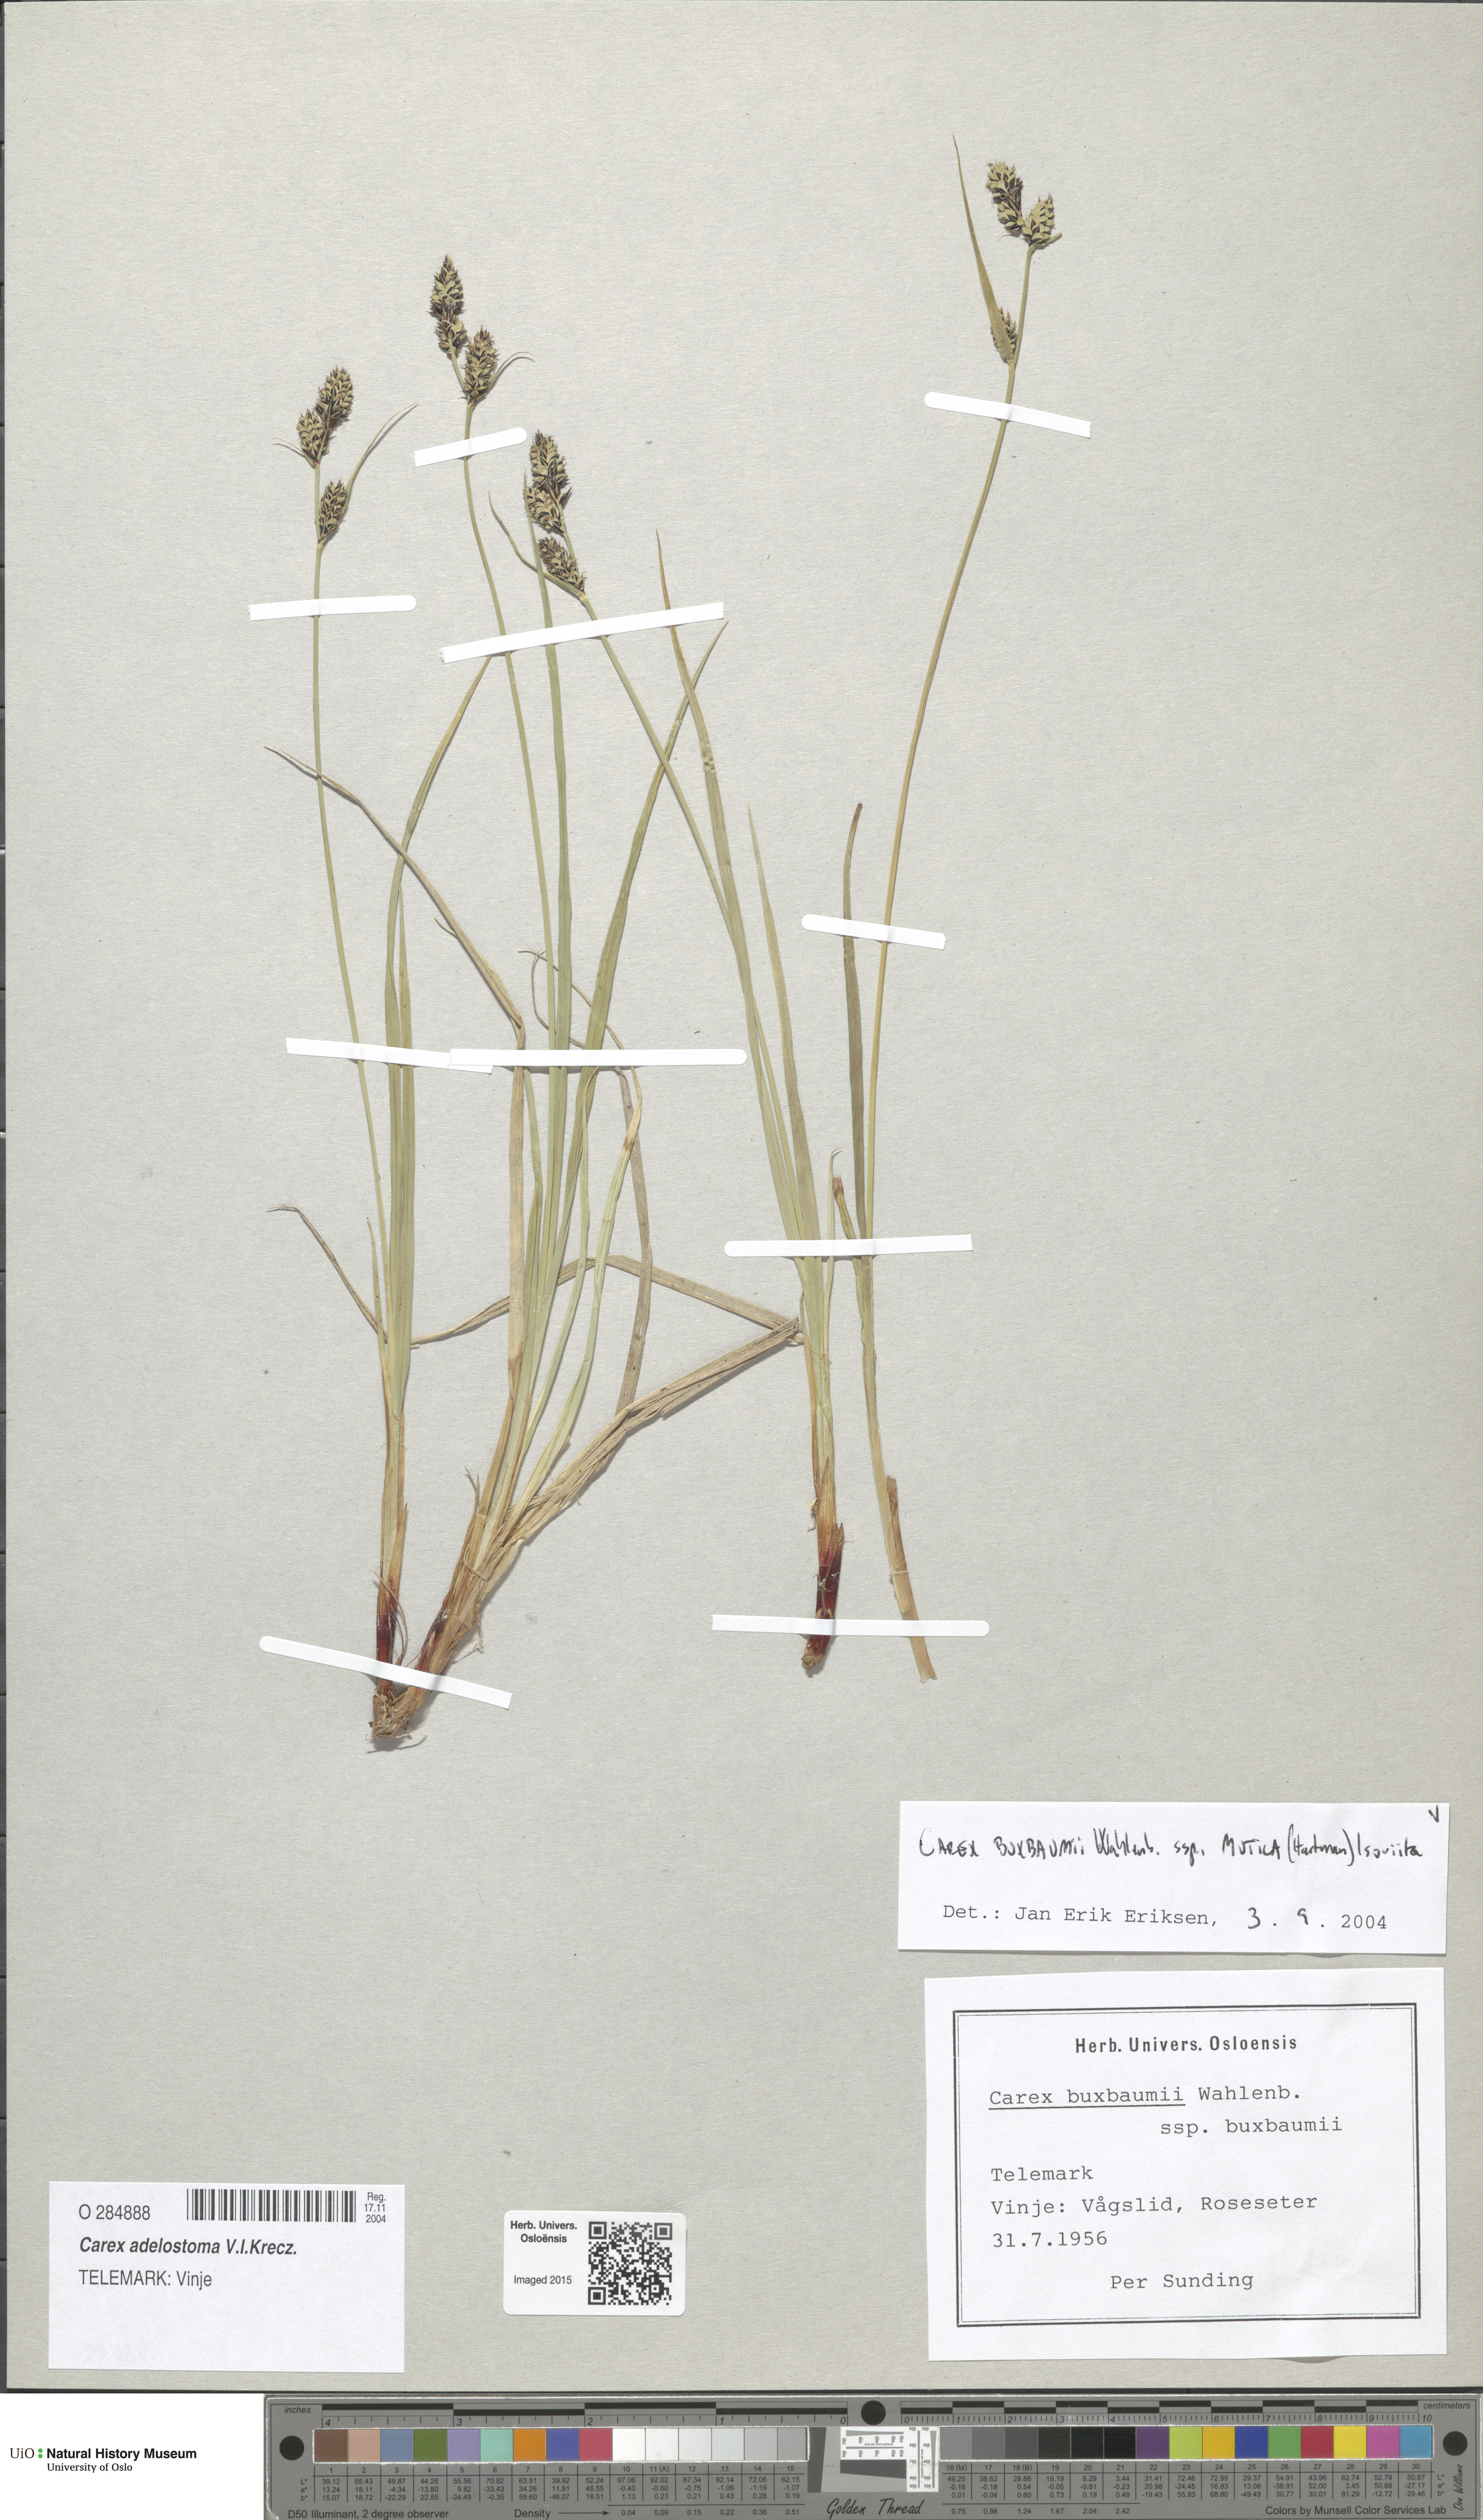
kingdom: Plantae
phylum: Tracheophyta
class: Liliopsida
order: Poales
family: Cyperaceae
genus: Carex
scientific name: Carex adelostoma
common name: Circumpolar sedge
